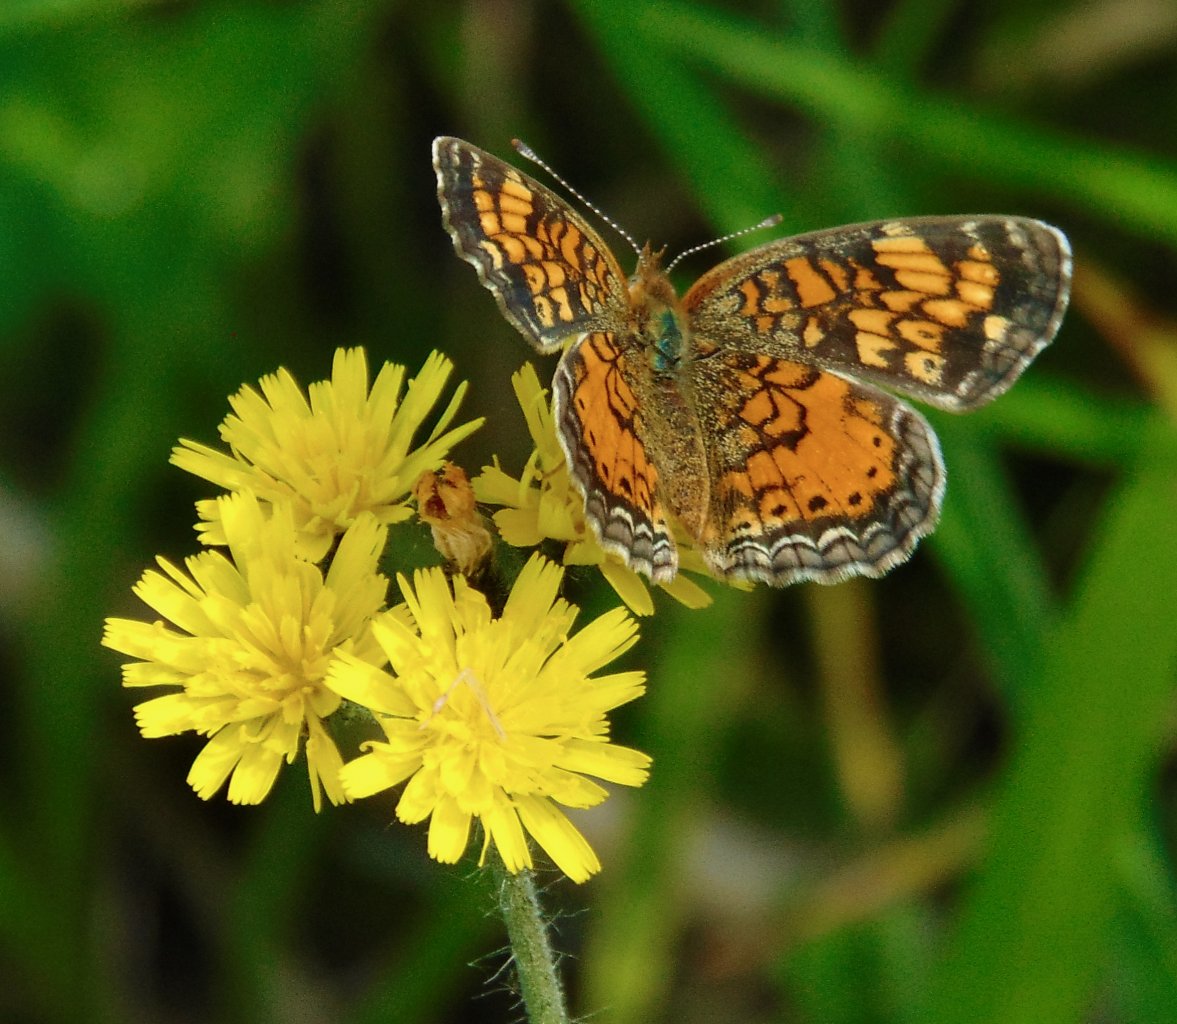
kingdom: Animalia
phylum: Arthropoda
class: Insecta
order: Lepidoptera
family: Nymphalidae
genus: Phyciodes
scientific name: Phyciodes tharos
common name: Pearl Crescent
